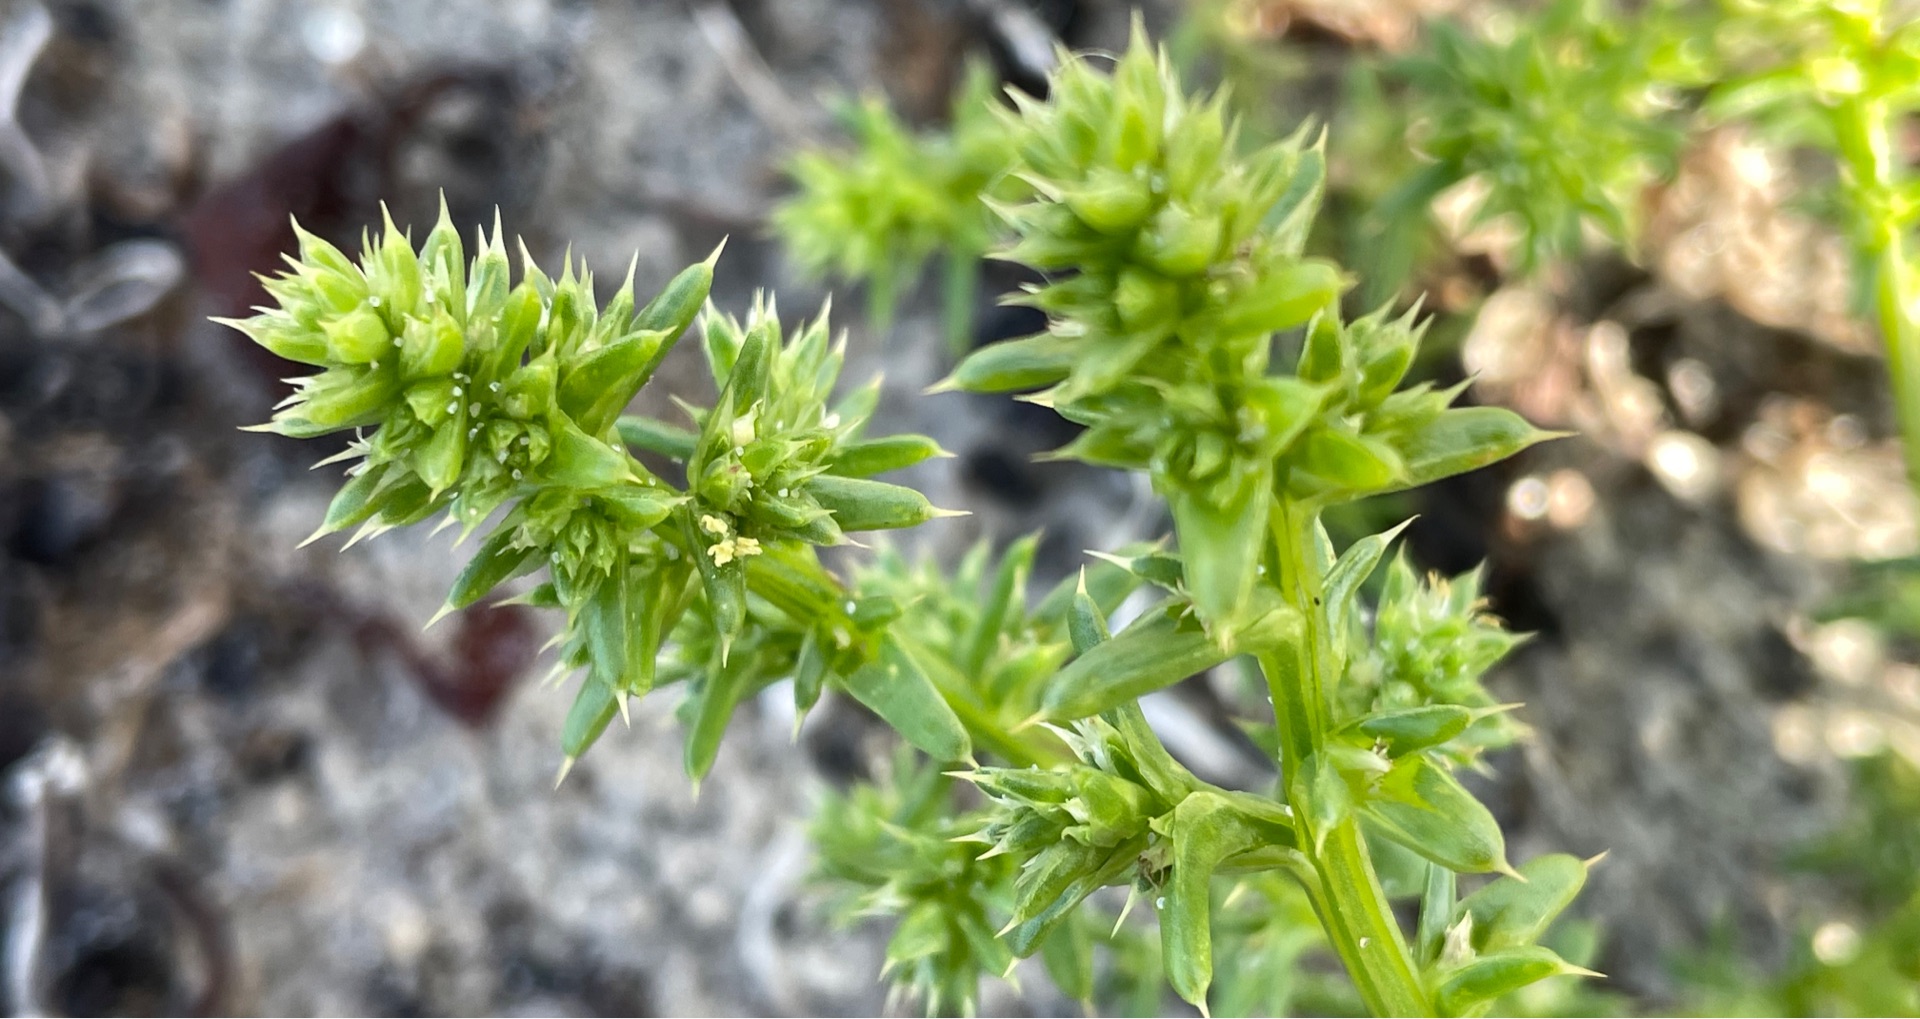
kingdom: Plantae
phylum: Tracheophyta
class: Magnoliopsida
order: Caryophyllales
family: Amaranthaceae
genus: Salsola
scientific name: Salsola kali
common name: Sodaurt
